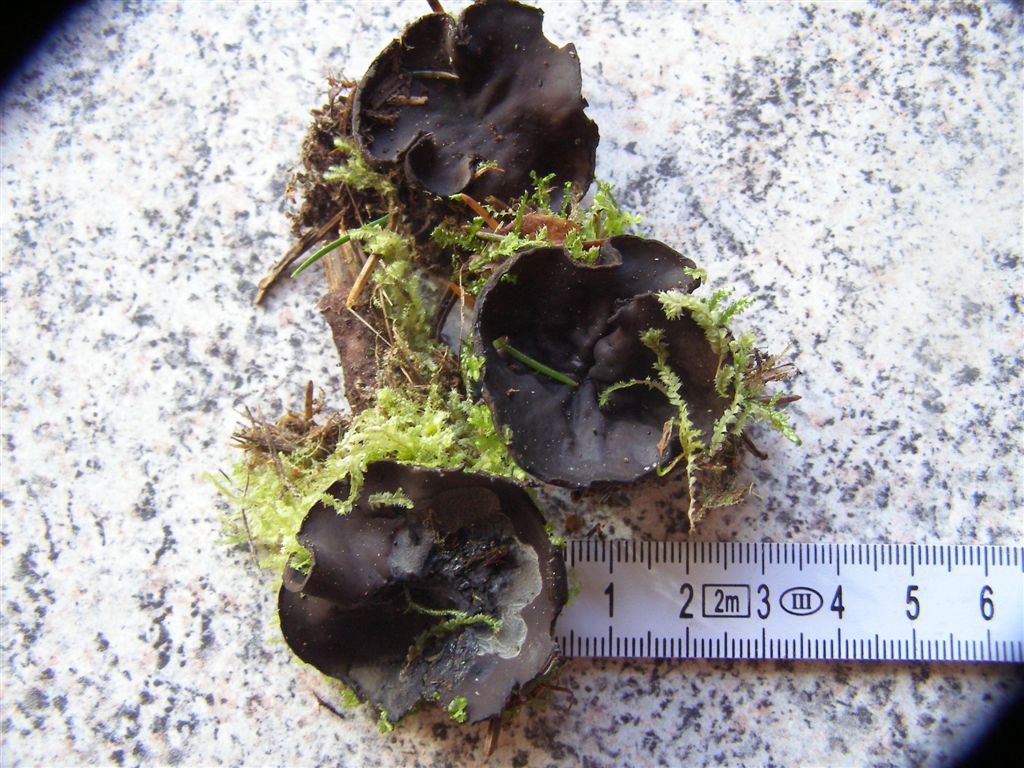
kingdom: Fungi
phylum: Ascomycota
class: Pezizomycetes
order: Pezizales
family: Sarcosomataceae
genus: Pseudoplectania
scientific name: Pseudoplectania nigrella
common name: almindelig sortbæger
